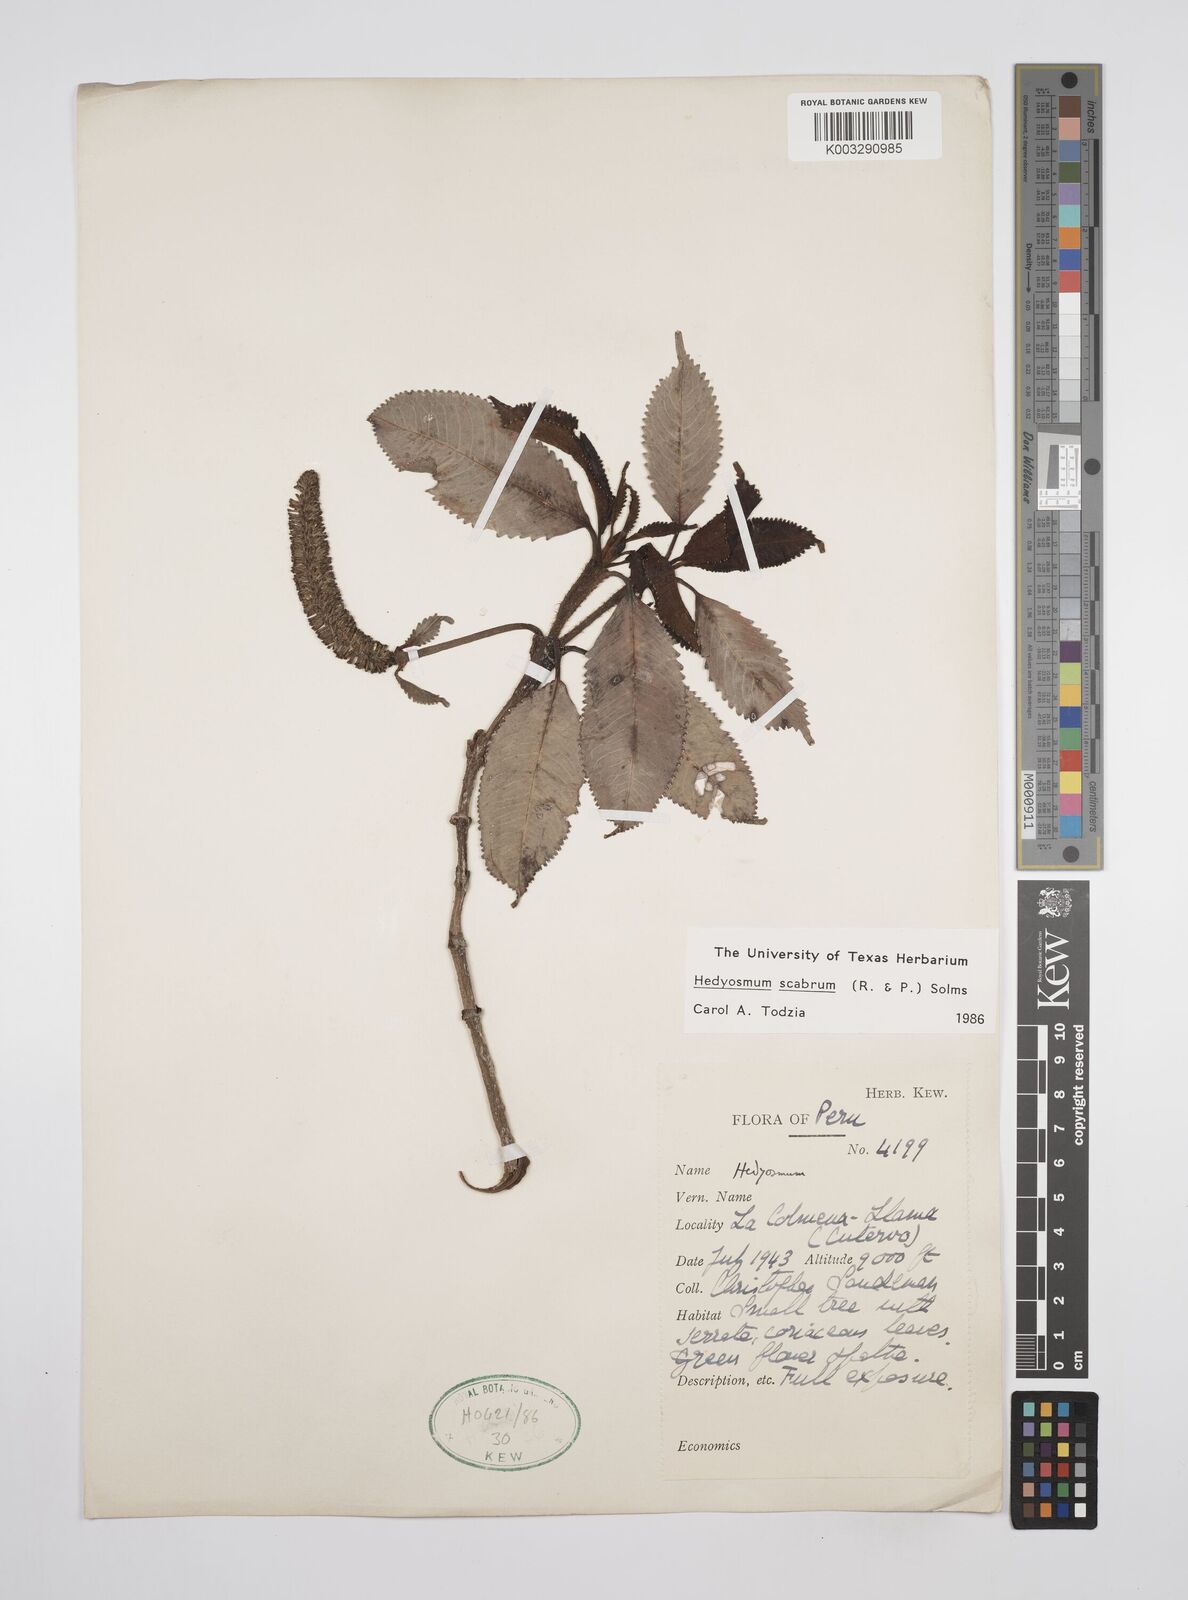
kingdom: Plantae
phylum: Tracheophyta
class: Magnoliopsida
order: Chloranthales
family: Chloranthaceae
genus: Hedyosmum
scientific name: Hedyosmum scabrum
